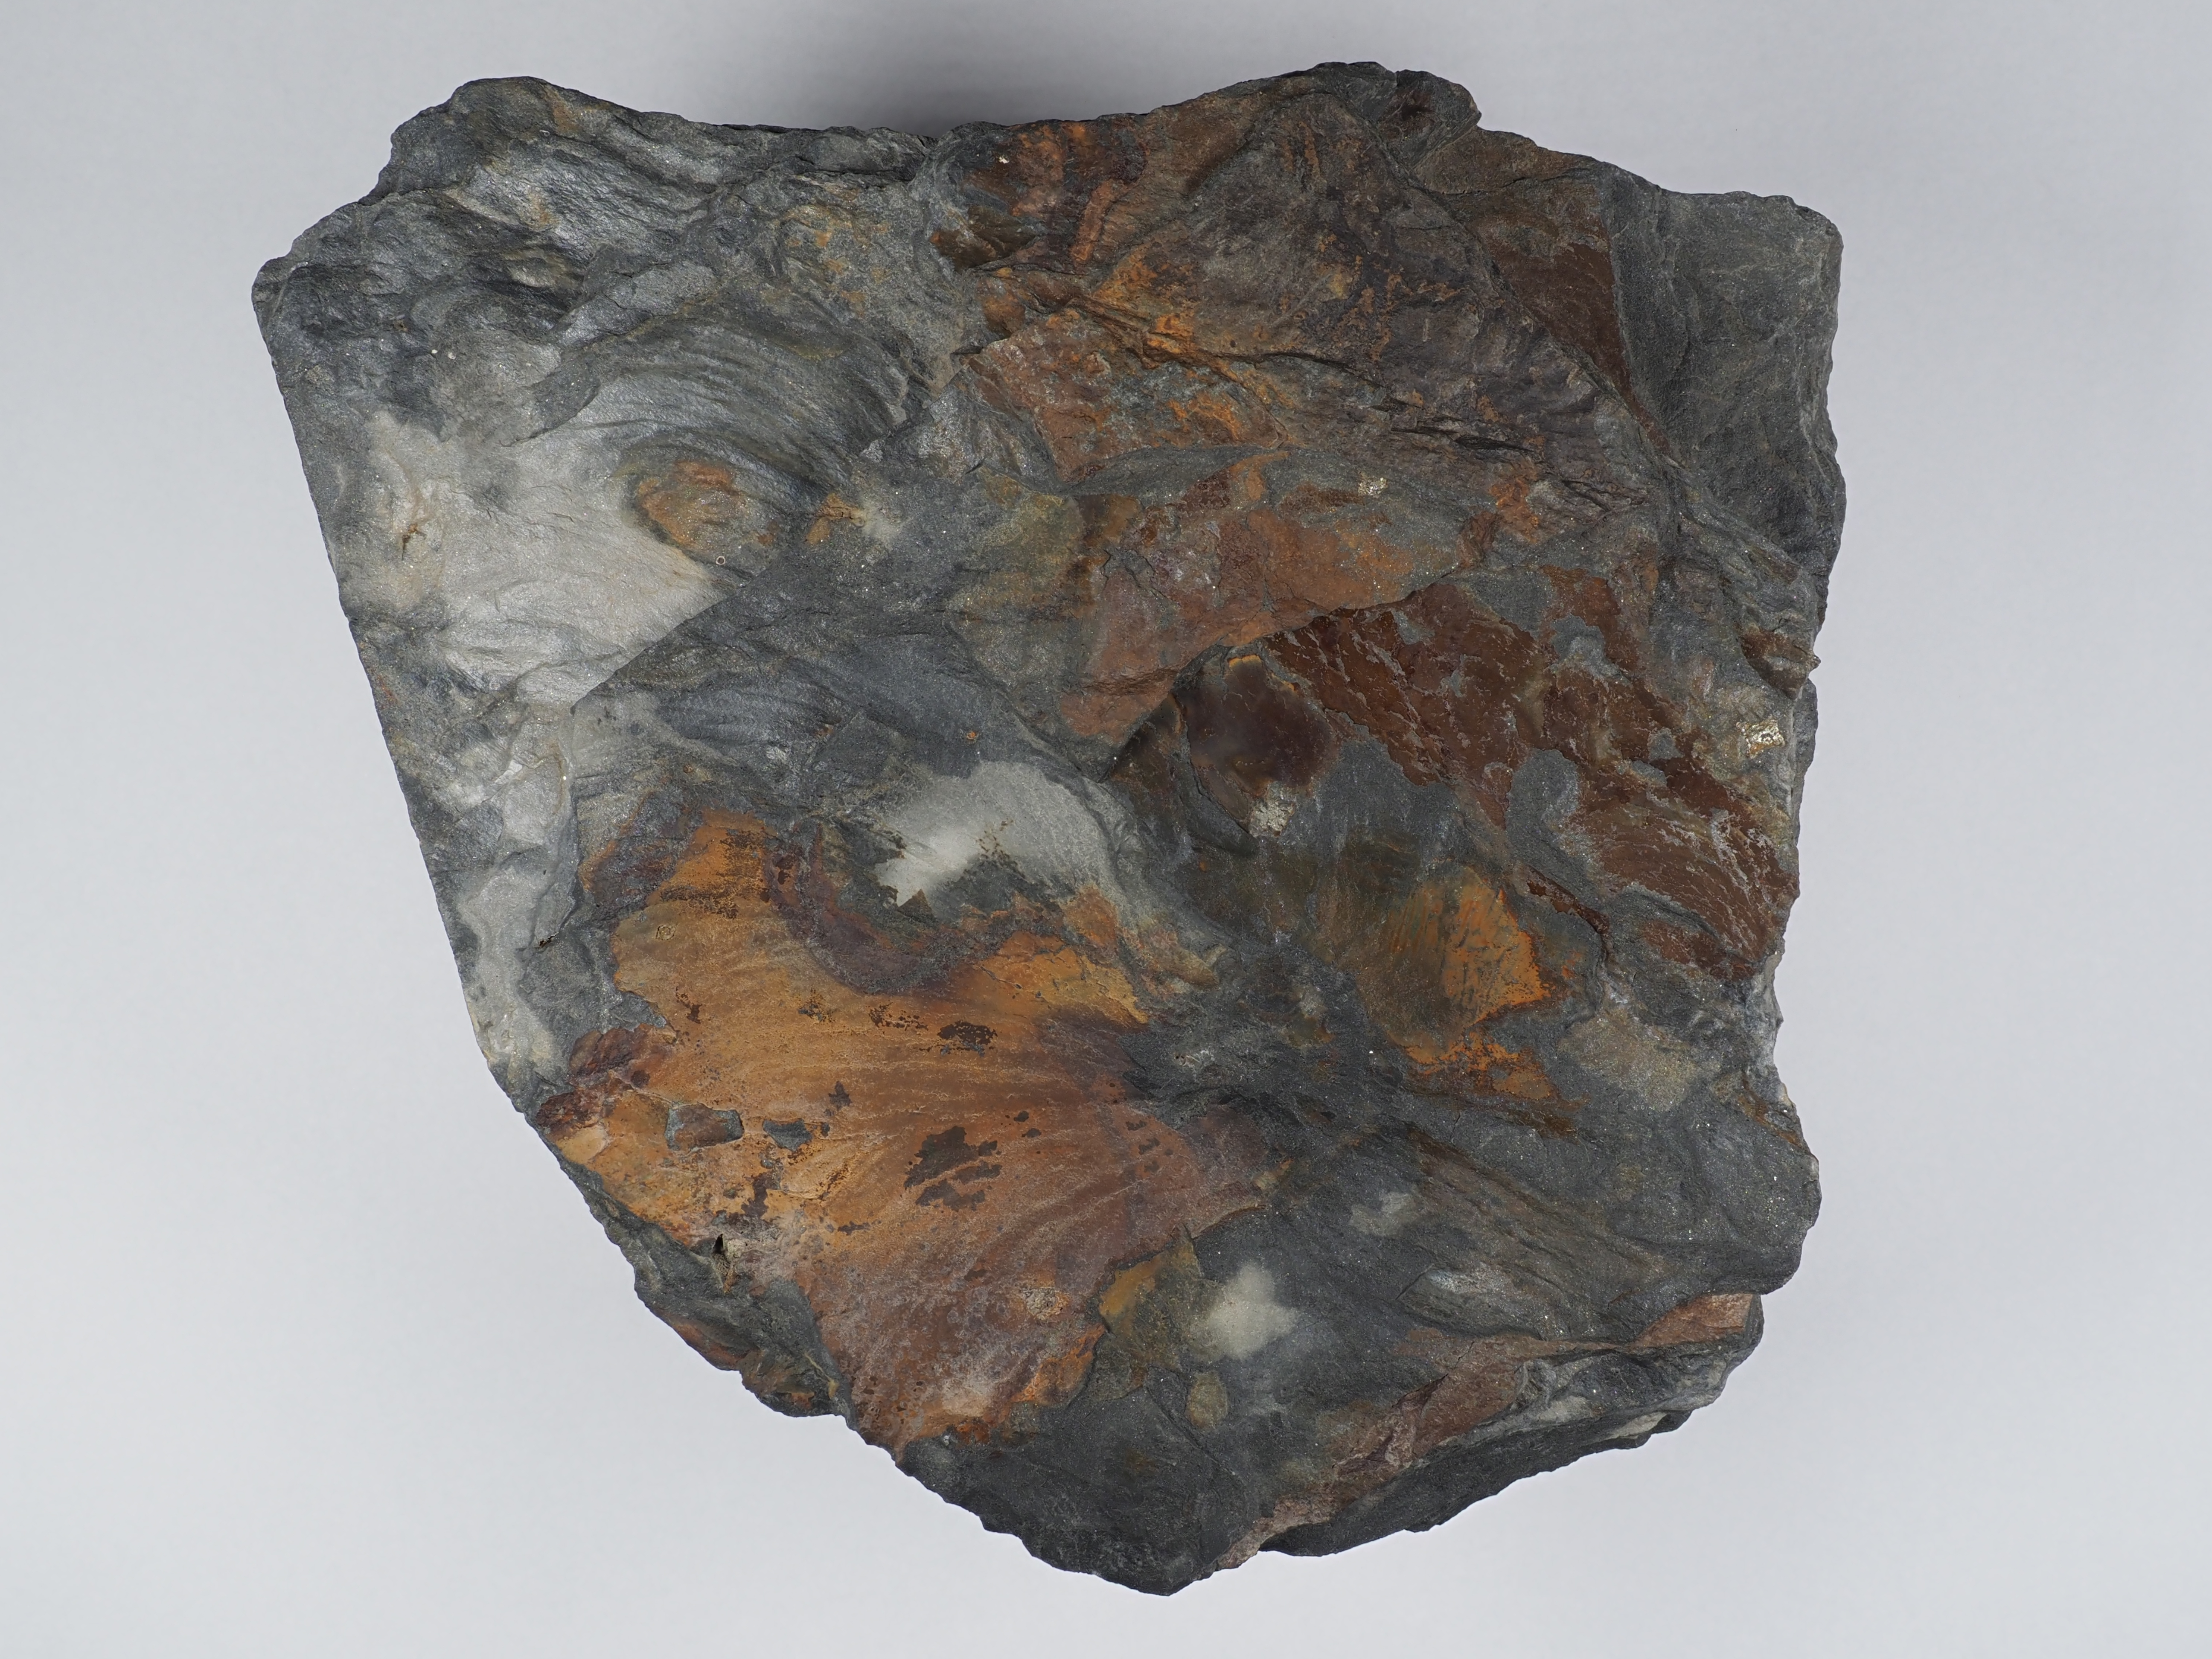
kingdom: Plantae
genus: Spirophyton
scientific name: Spirophyton
